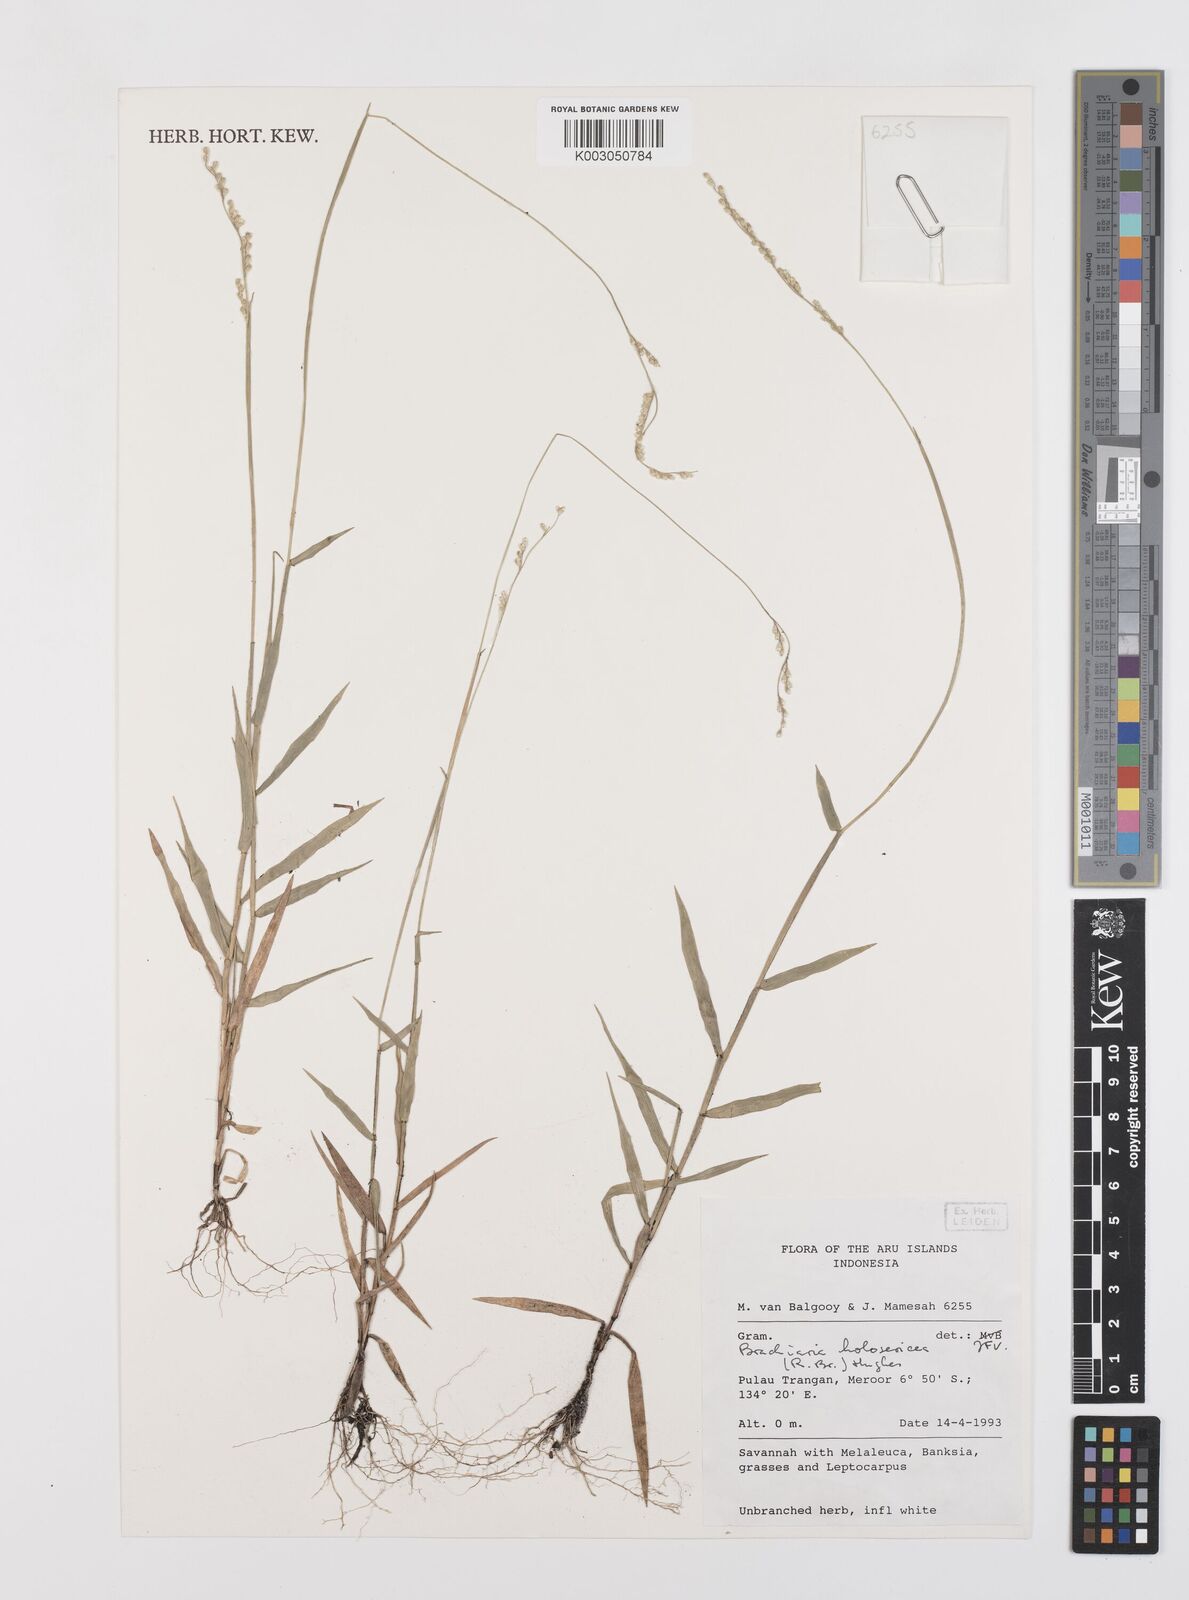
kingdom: Plantae
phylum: Tracheophyta
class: Liliopsida
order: Poales
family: Poaceae
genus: Urochloa
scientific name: Urochloa holosericea
